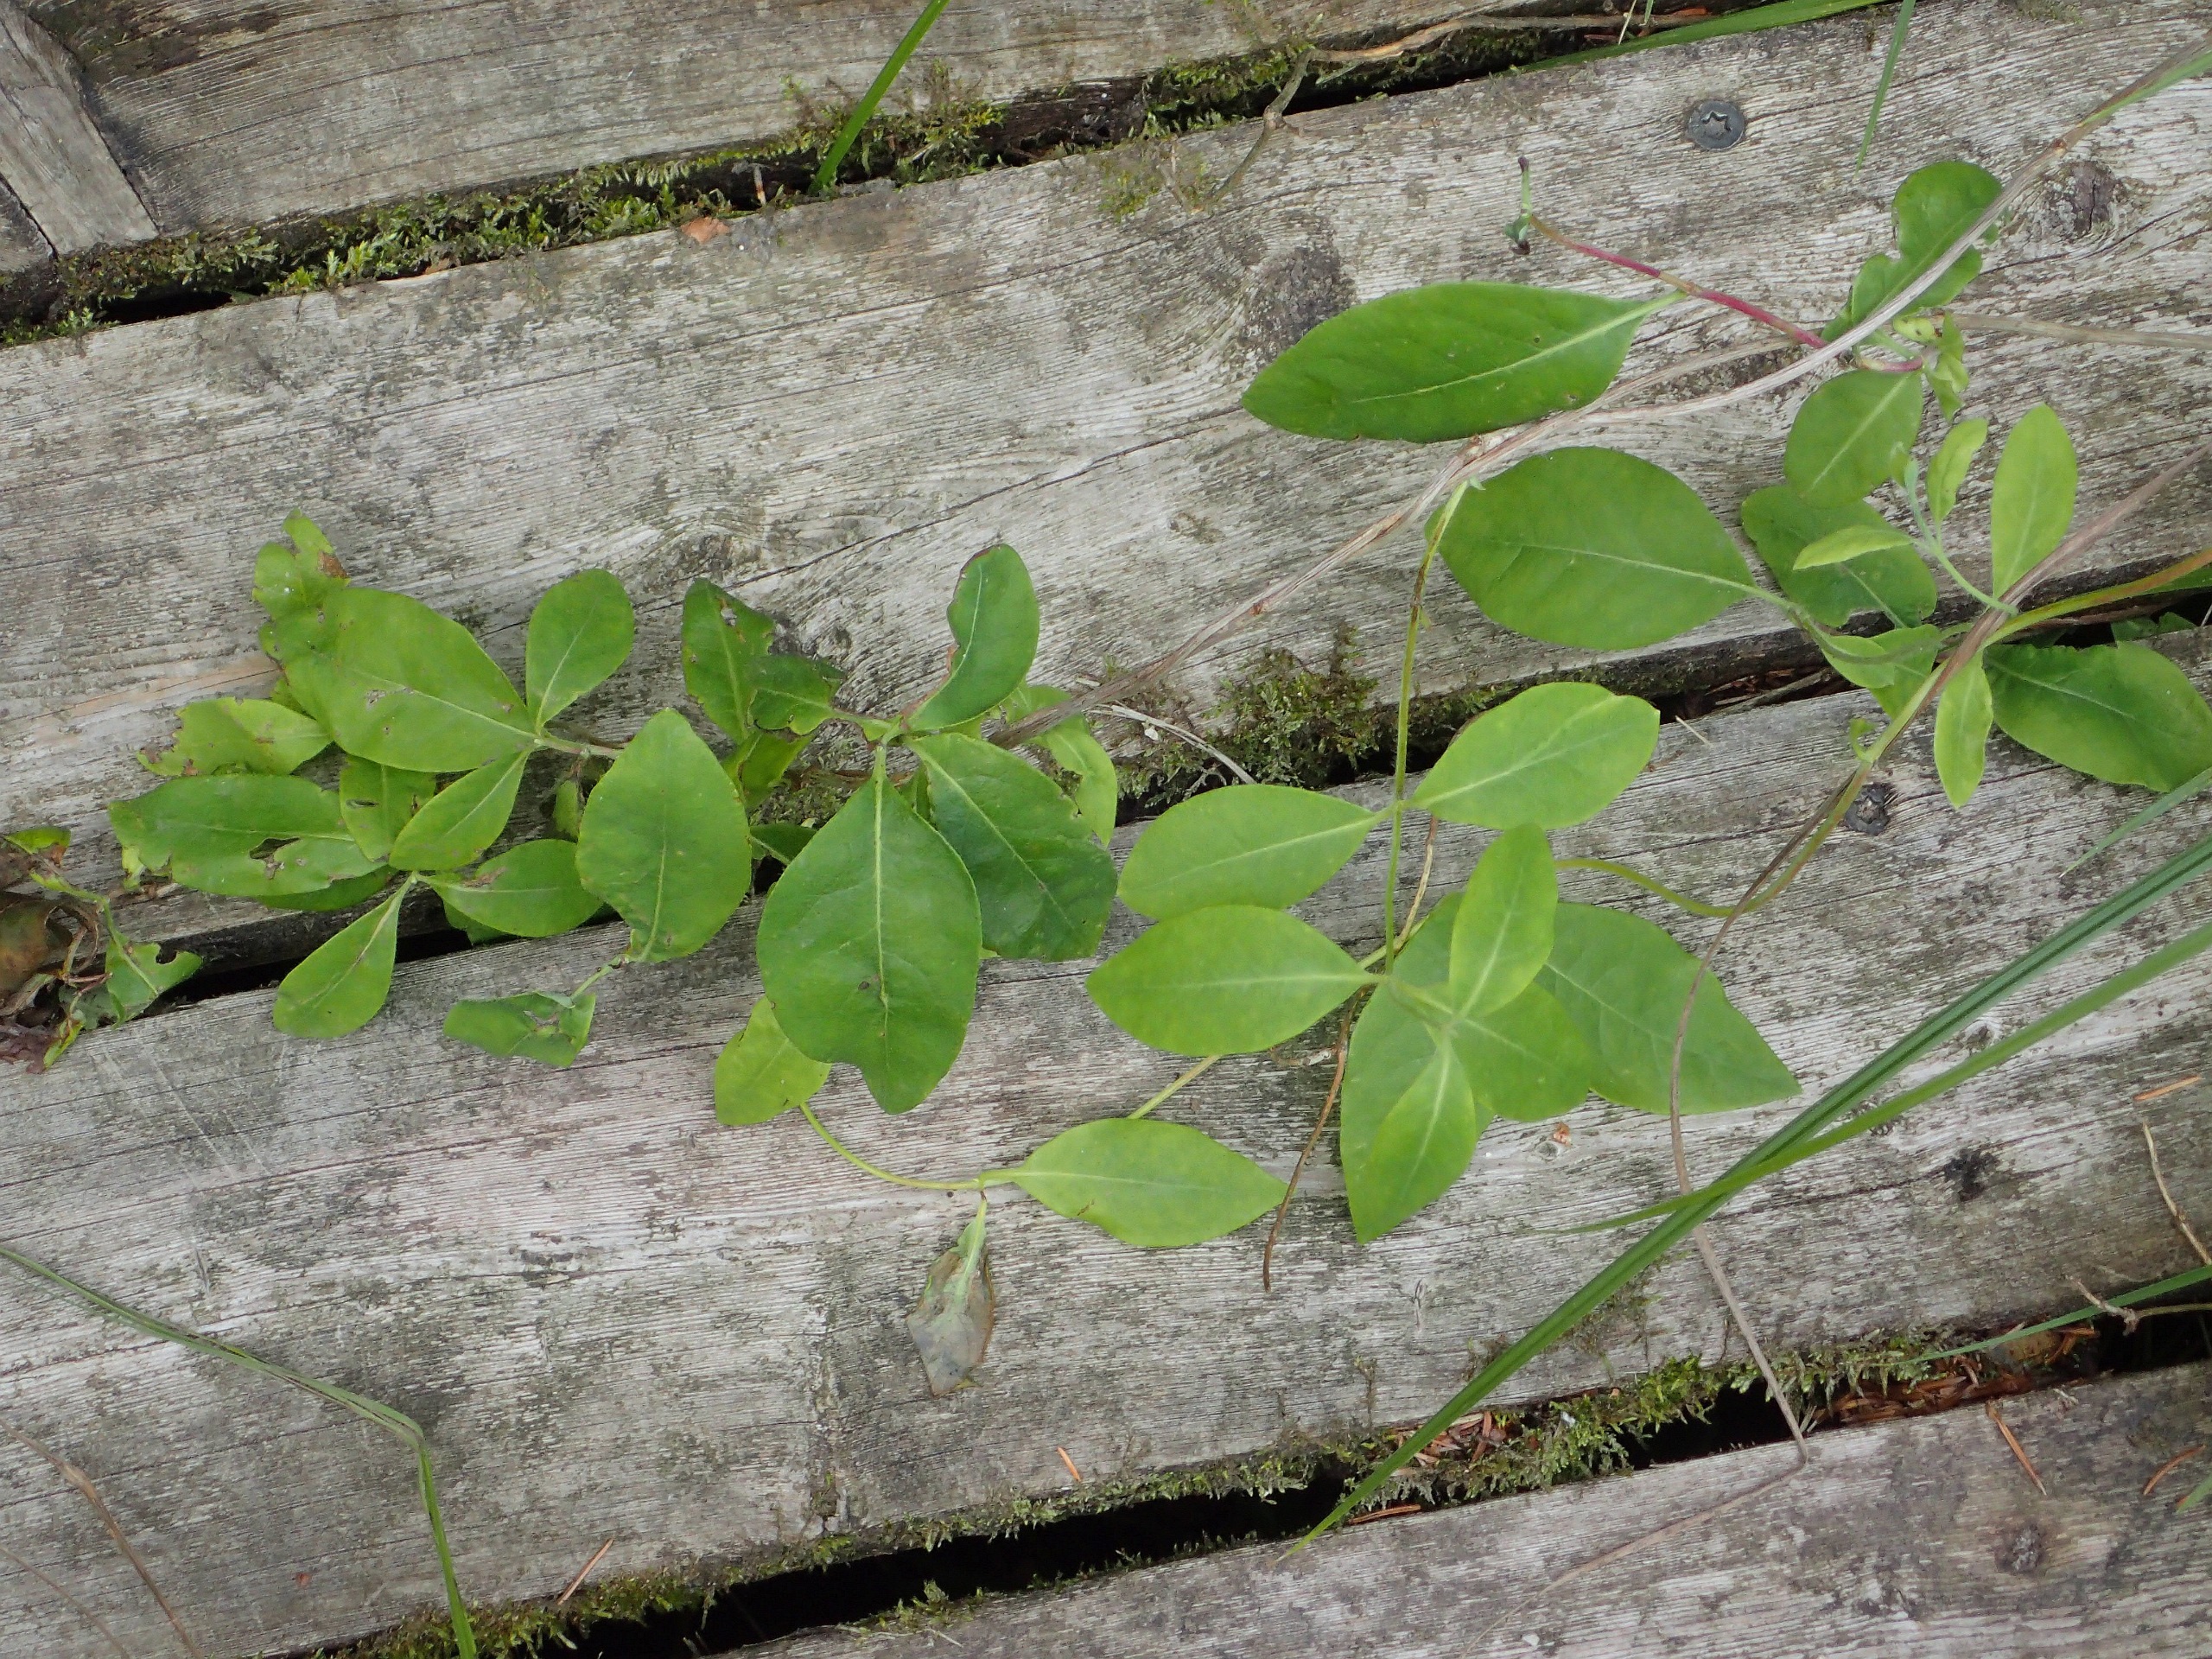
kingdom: Plantae
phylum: Tracheophyta
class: Magnoliopsida
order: Dipsacales
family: Caprifoliaceae
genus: Lonicera
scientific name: Lonicera periclymenum
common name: Almindelig gedeblad
